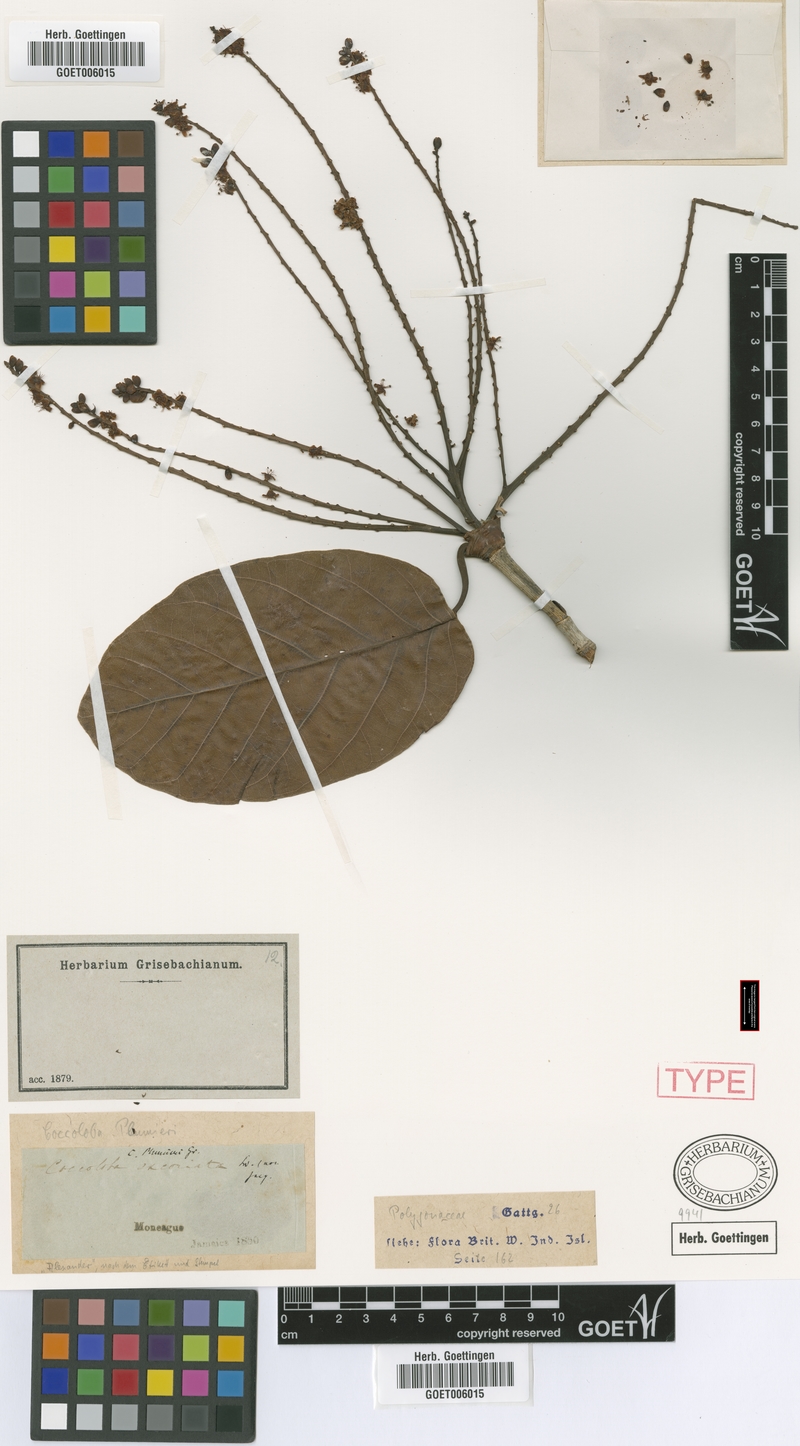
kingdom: Plantae
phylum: Tracheophyta
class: Magnoliopsida
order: Caryophyllales
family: Polygonaceae
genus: Coccoloba
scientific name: Coccoloba plumieri
